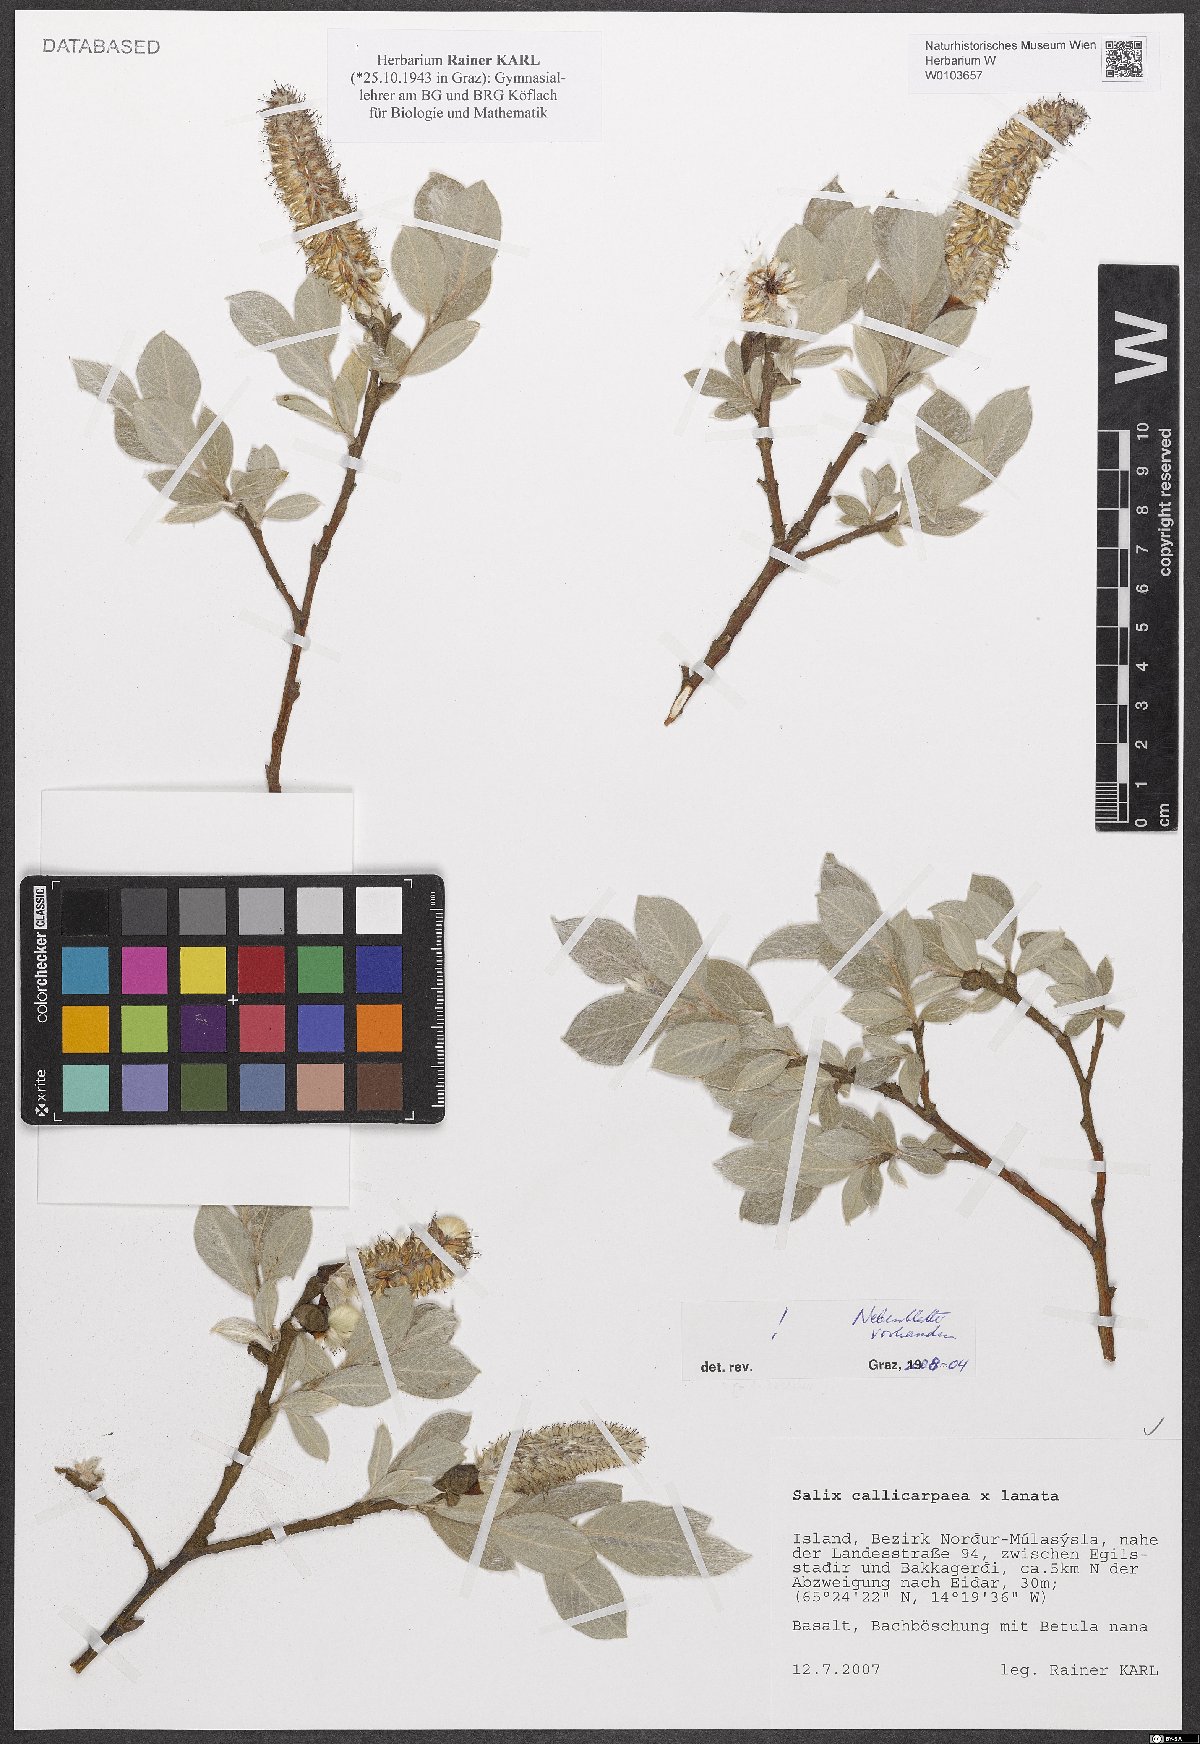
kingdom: Plantae
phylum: Tracheophyta
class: Magnoliopsida
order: Malpighiales
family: Salicaceae
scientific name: Salicaceae
